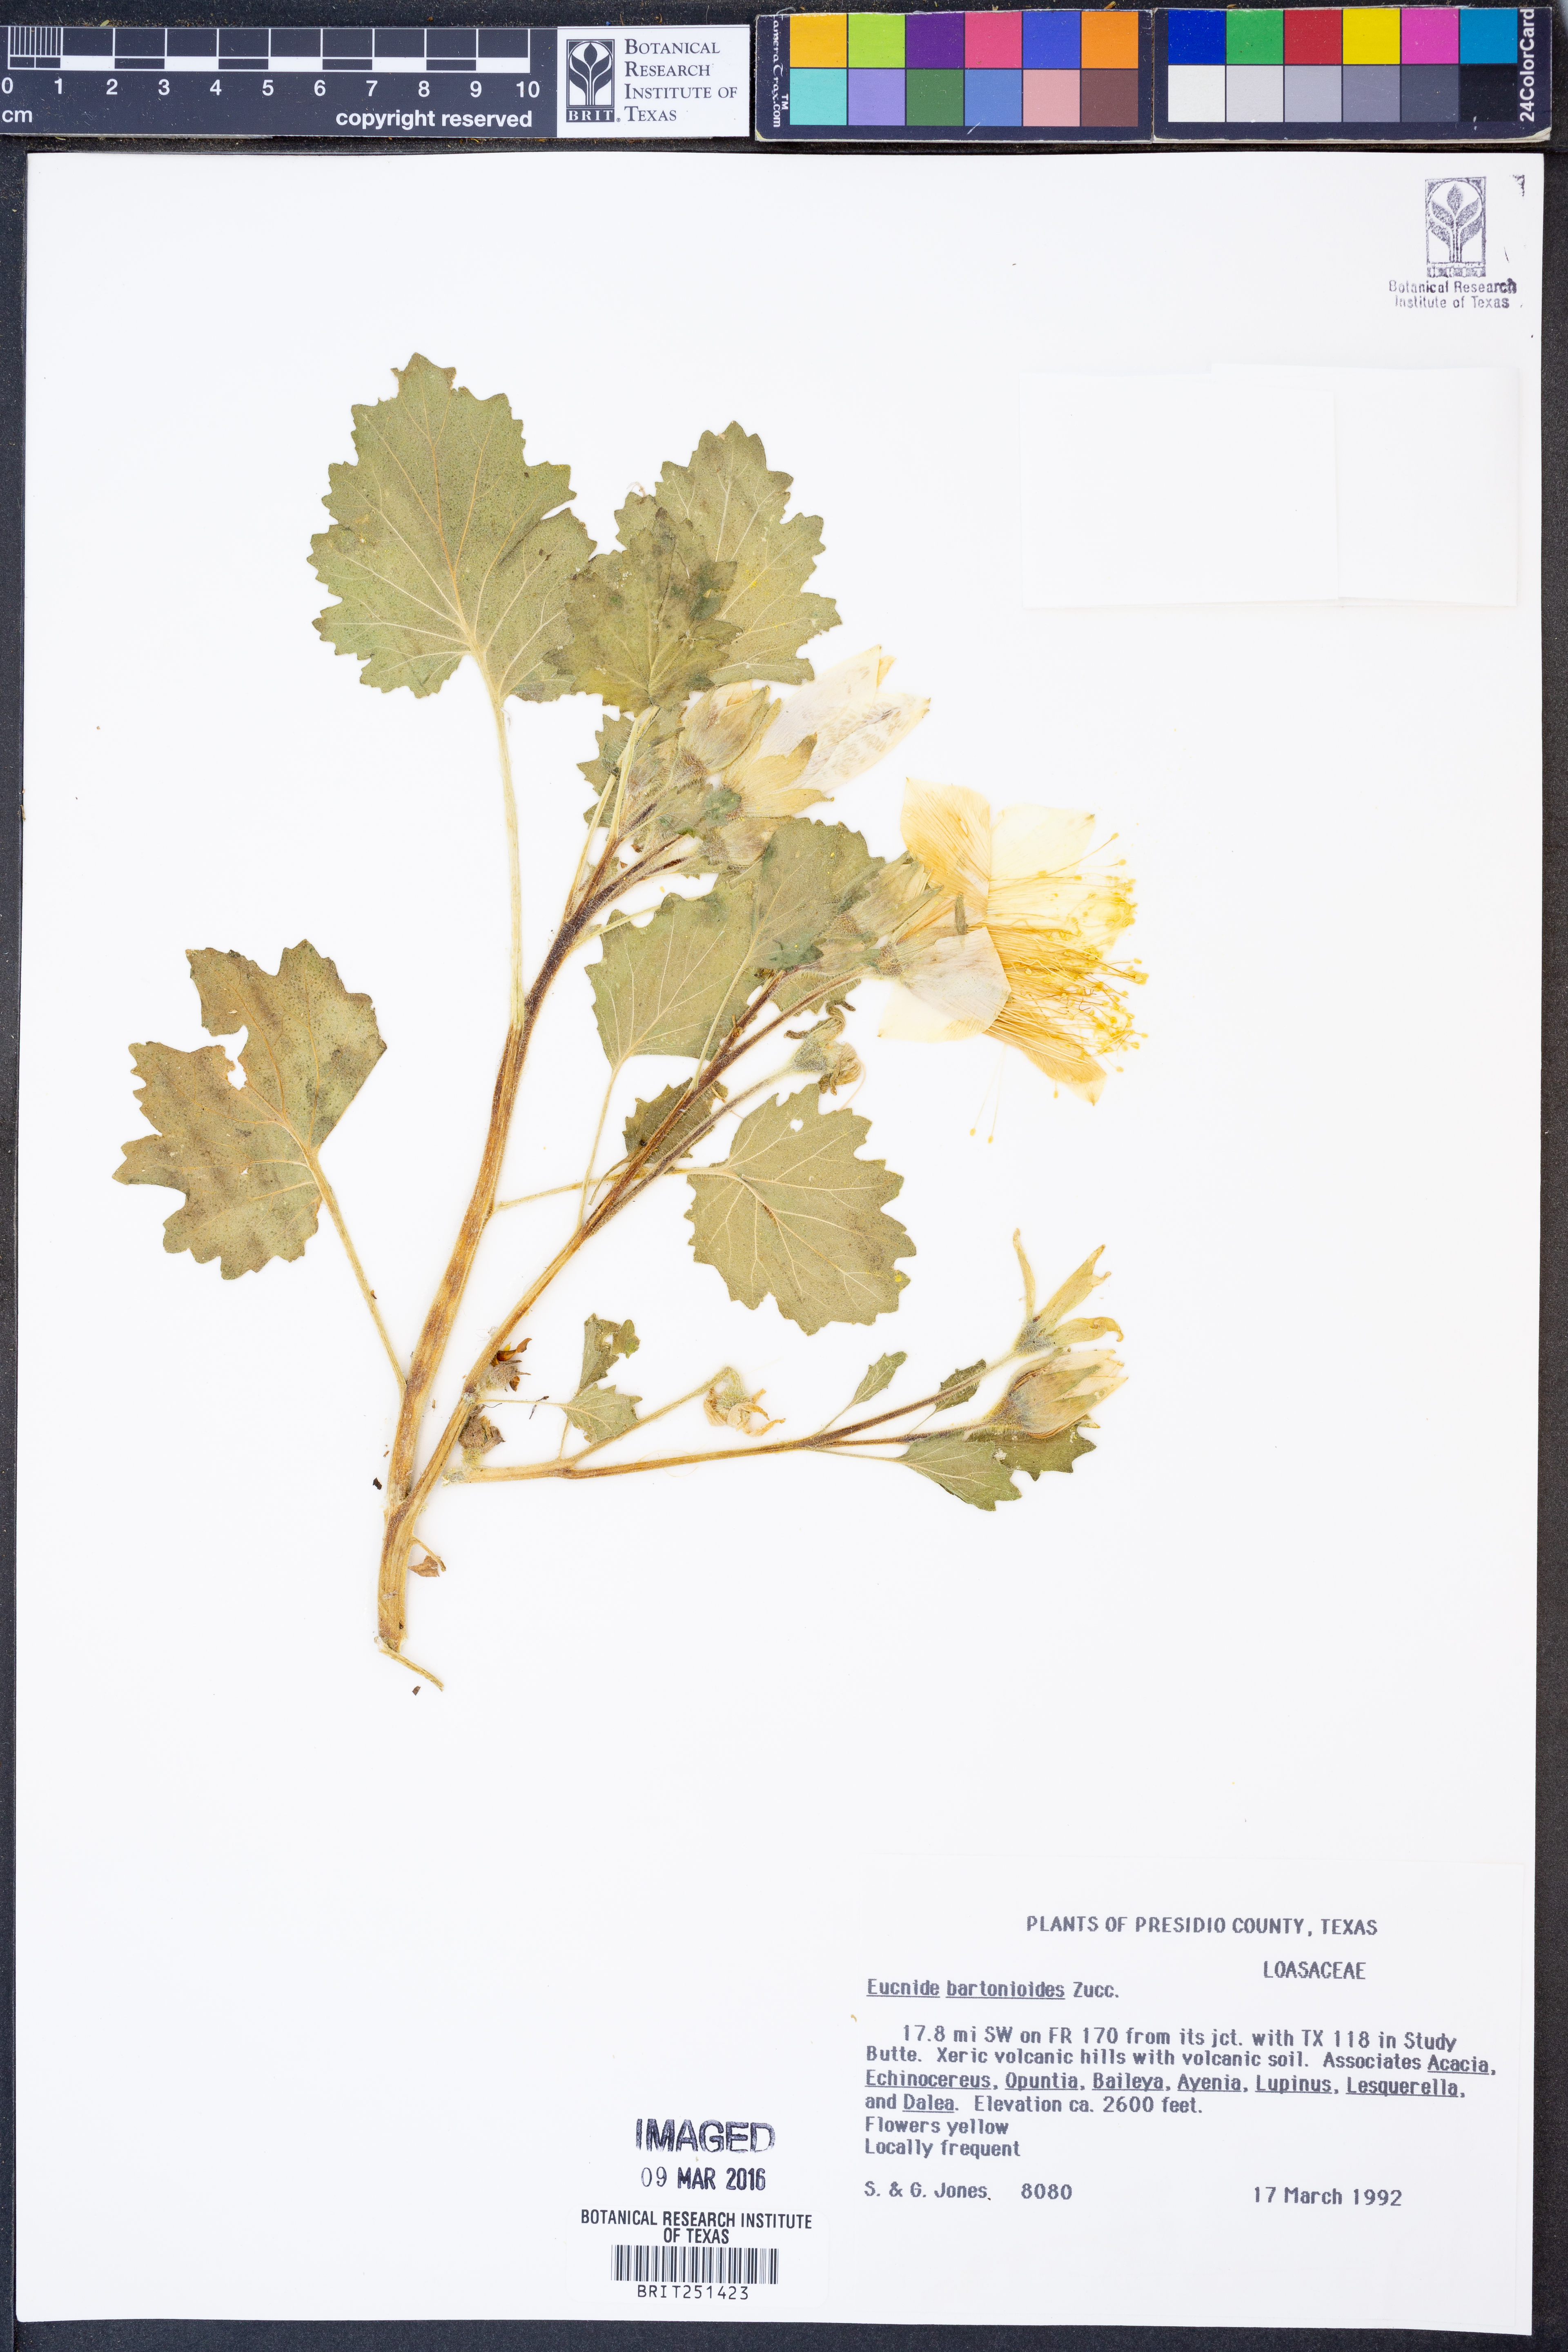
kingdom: Plantae
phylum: Tracheophyta
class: Magnoliopsida
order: Cornales
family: Loasaceae
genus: Eucnide
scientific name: Eucnide bartonioides
